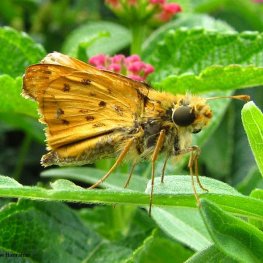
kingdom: Animalia
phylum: Arthropoda
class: Insecta
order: Lepidoptera
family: Hesperiidae
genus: Hylephila
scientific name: Hylephila phyleus
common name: Fiery Skipper
